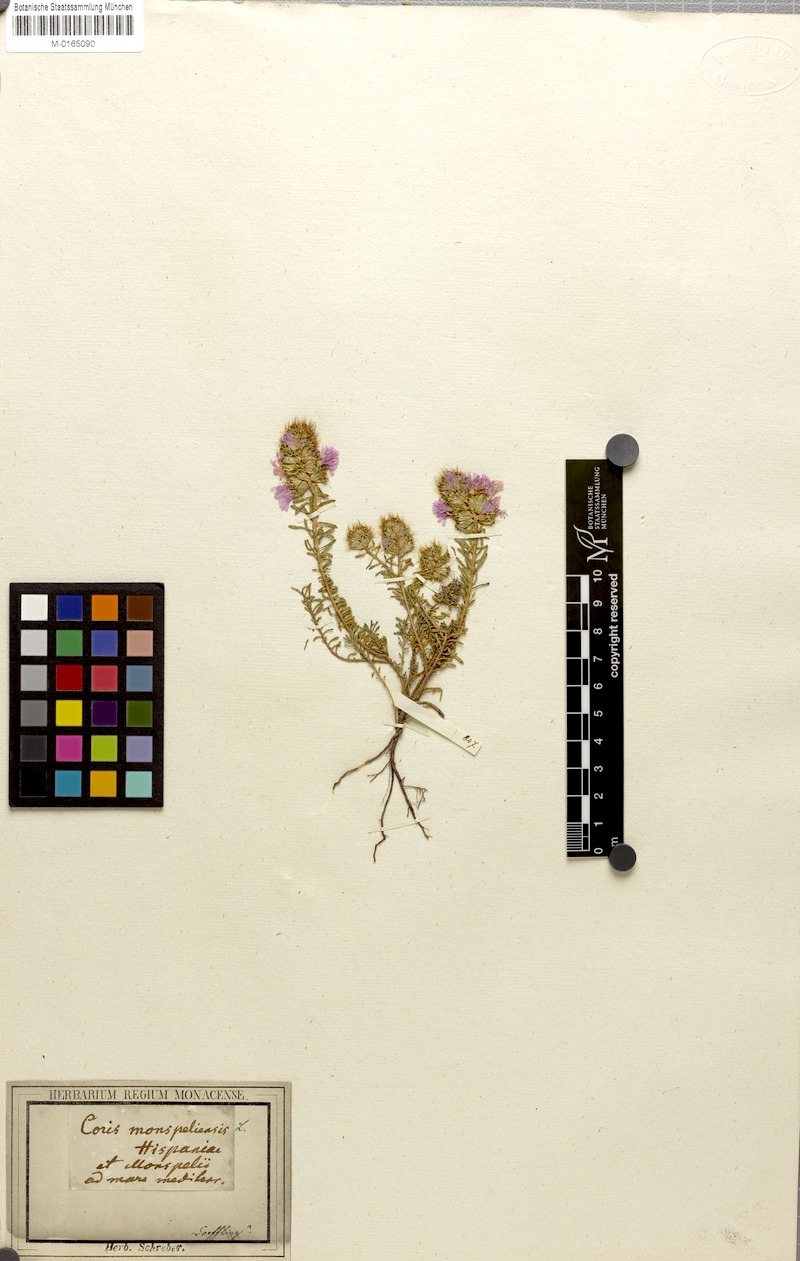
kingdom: Plantae
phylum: Tracheophyta
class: Magnoliopsida
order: Ericales
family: Primulaceae
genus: Coris
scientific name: Coris monspeliensis
